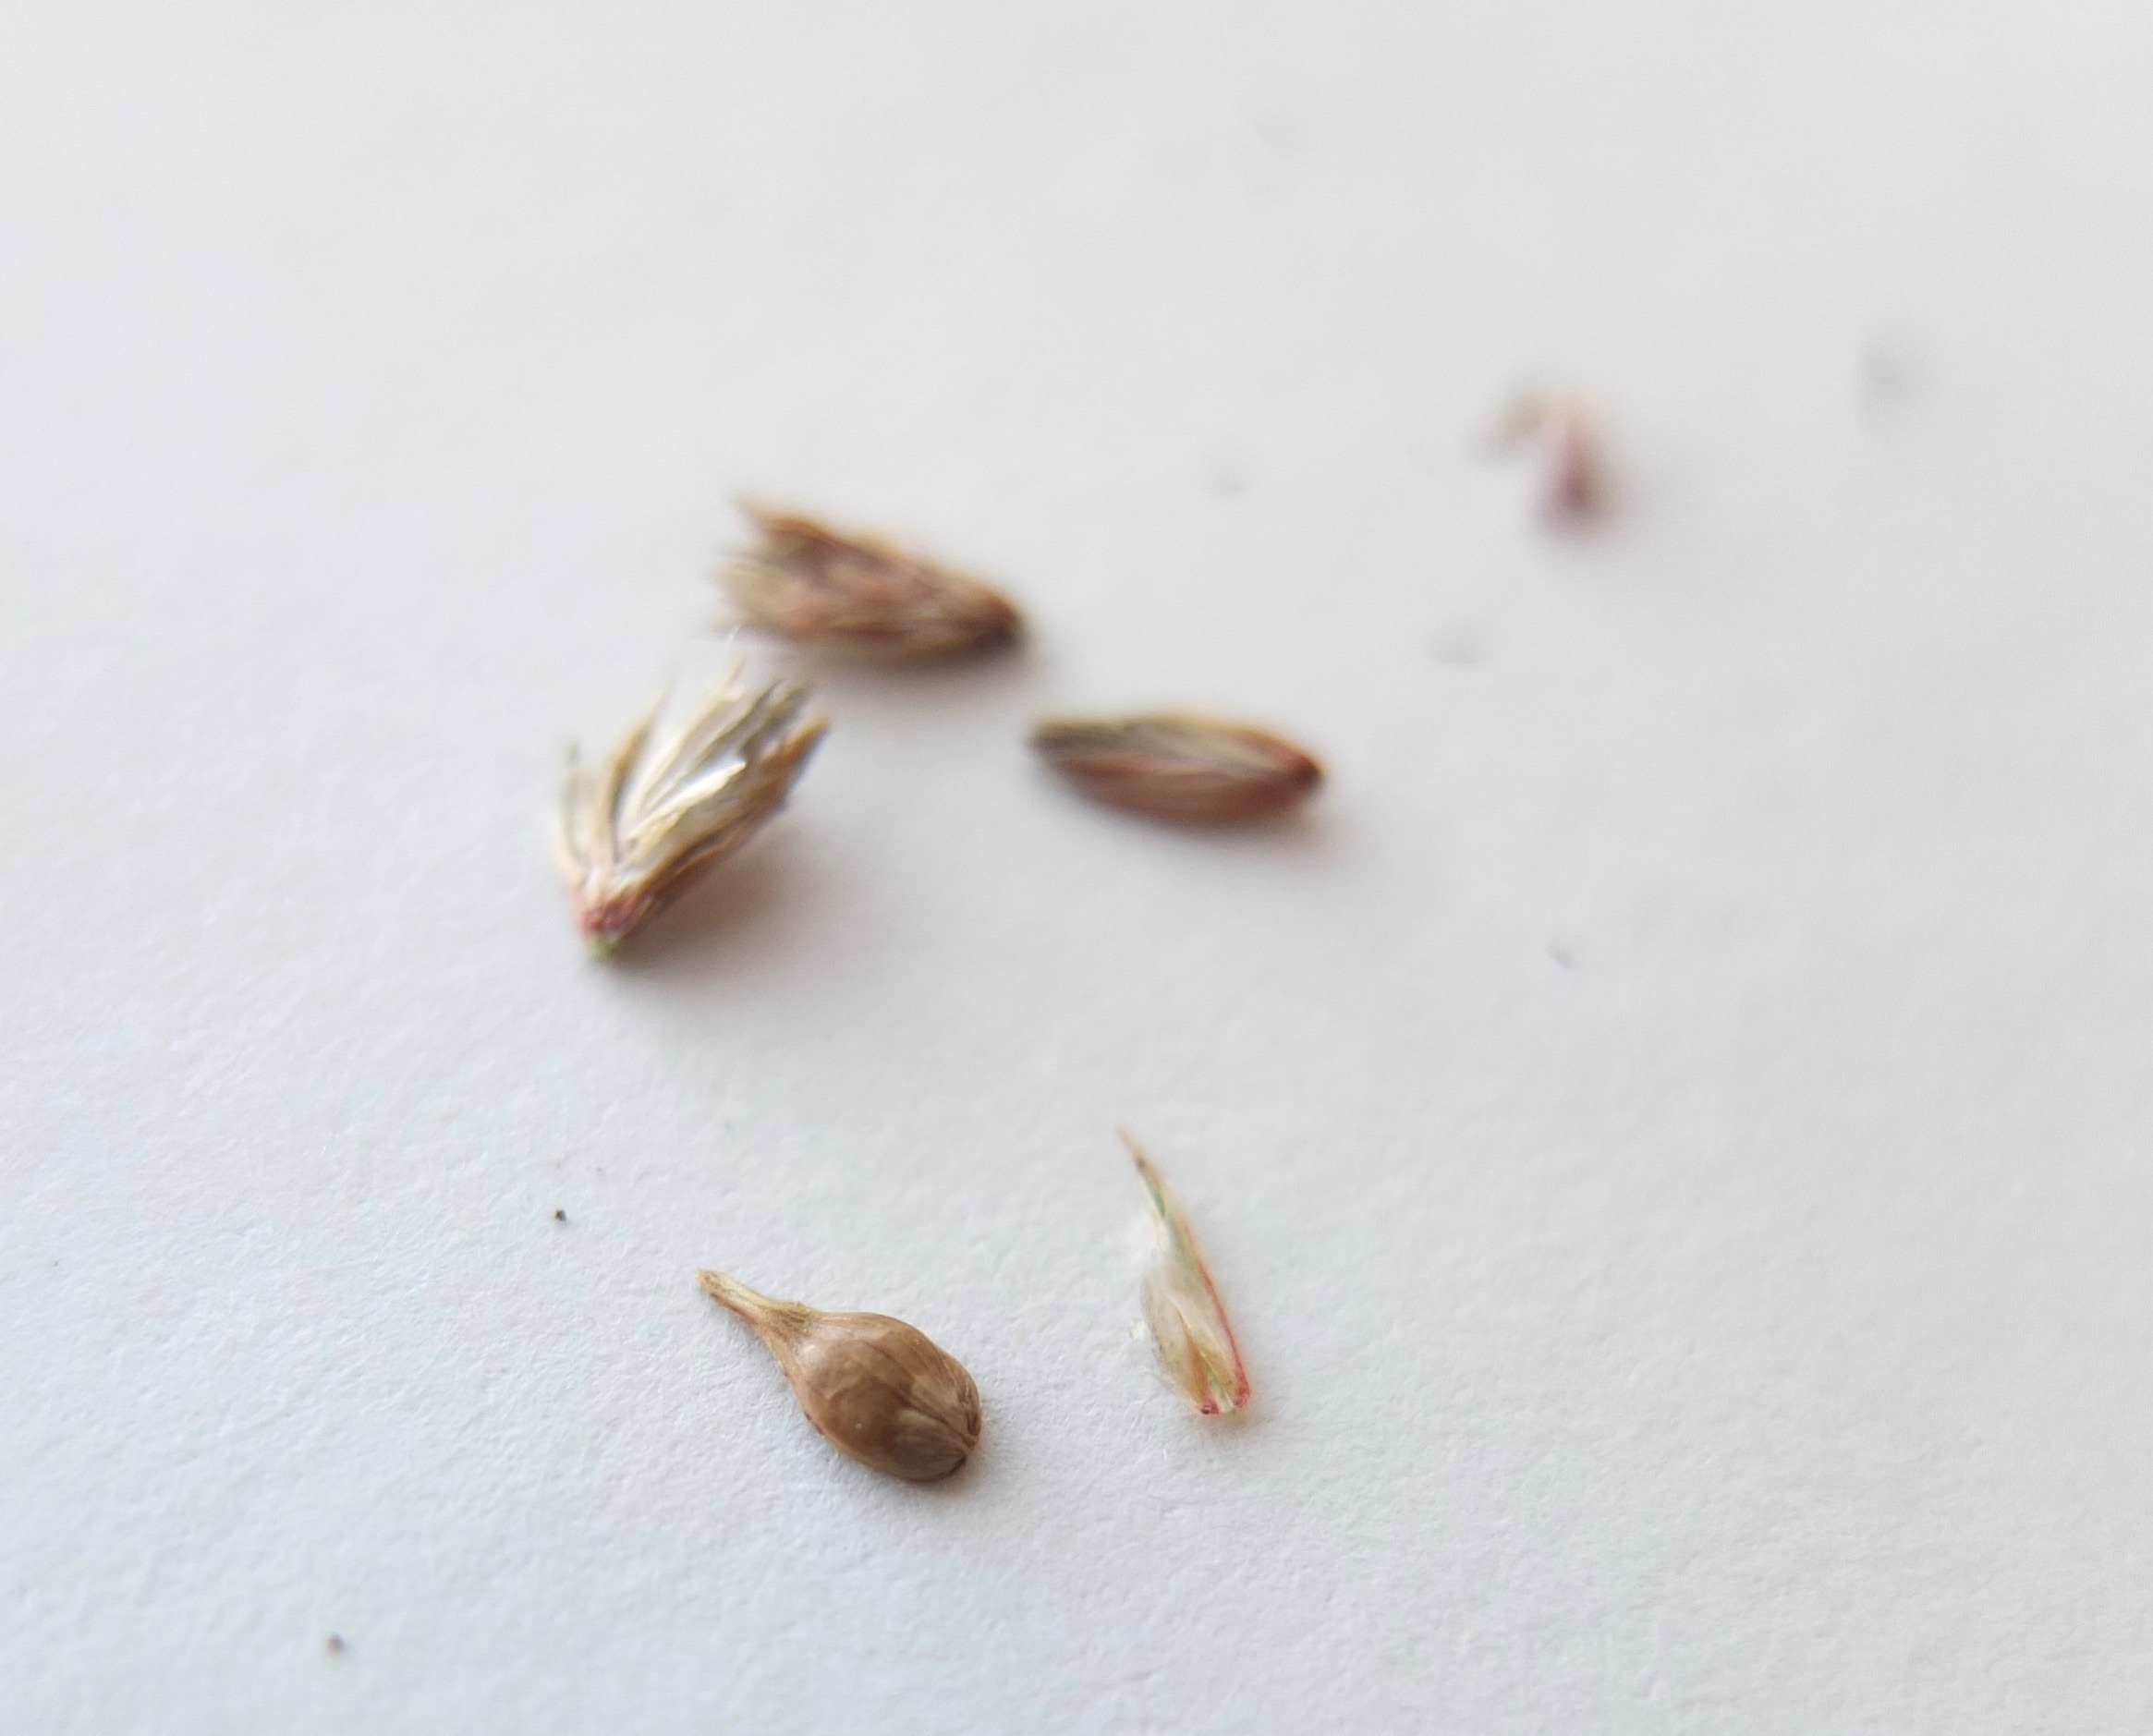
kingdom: Plantae
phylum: Tracheophyta
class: Liliopsida
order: Poales
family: Cyperaceae
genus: Carex
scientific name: Carex disticha
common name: Toradet star
